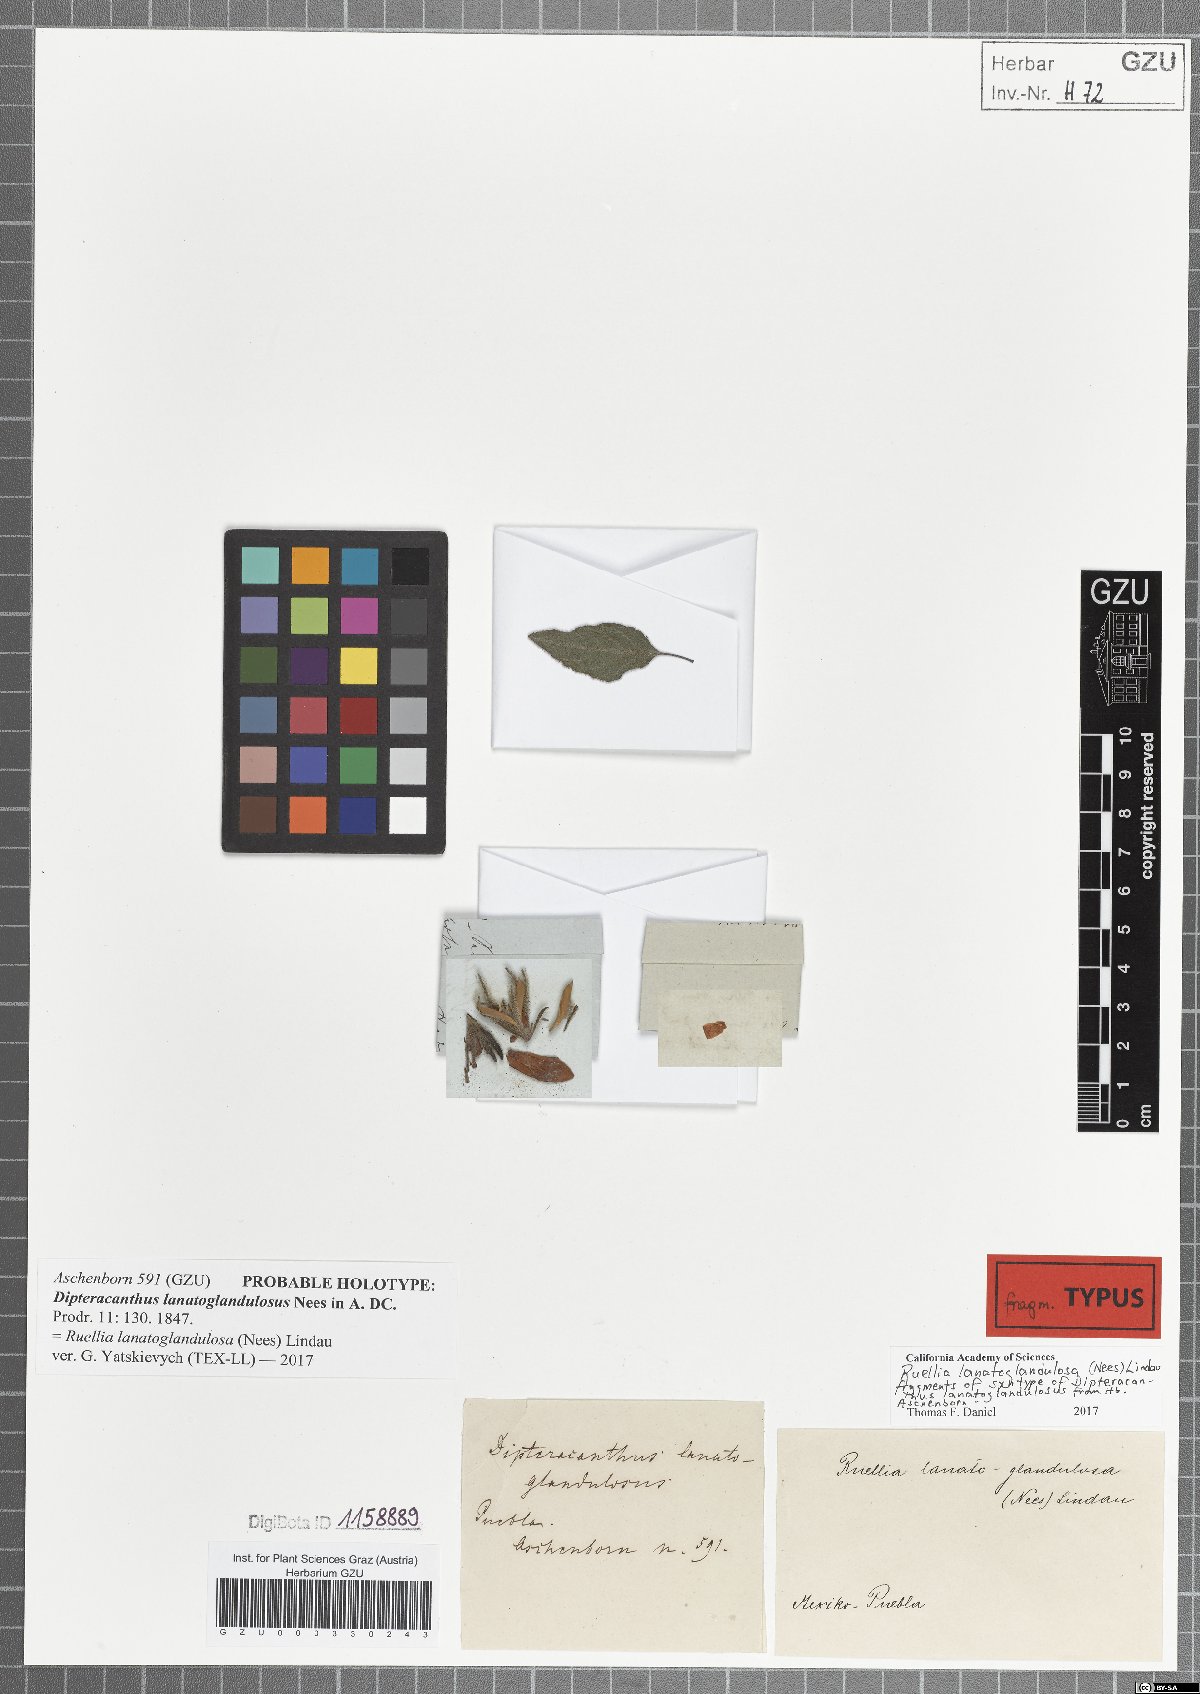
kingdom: Plantae
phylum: Tracheophyta
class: Magnoliopsida
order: Lamiales
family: Acanthaceae
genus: Ruellia
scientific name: Ruellia lanatoglandulosa
